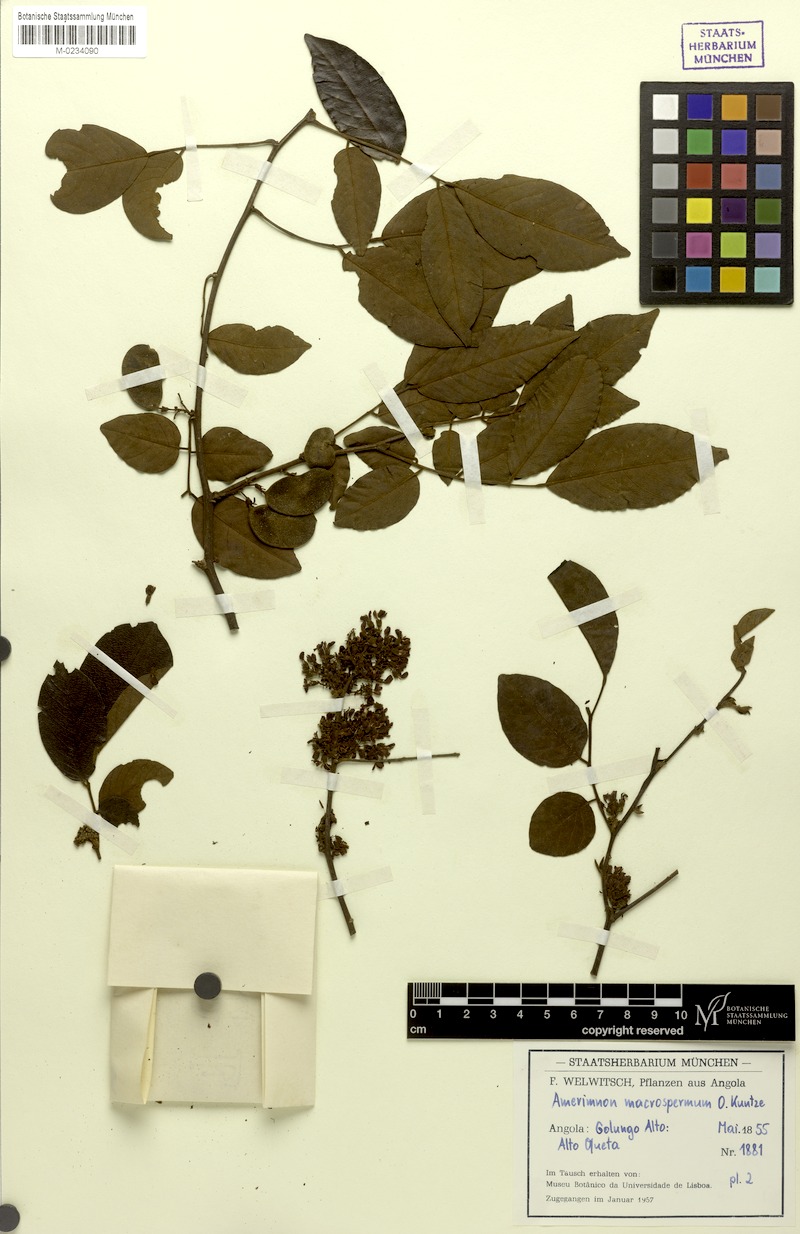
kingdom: Plantae
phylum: Tracheophyta
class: Magnoliopsida
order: Fabales
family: Fabaceae
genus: Dalbergia
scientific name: Dalbergia macrosperma
